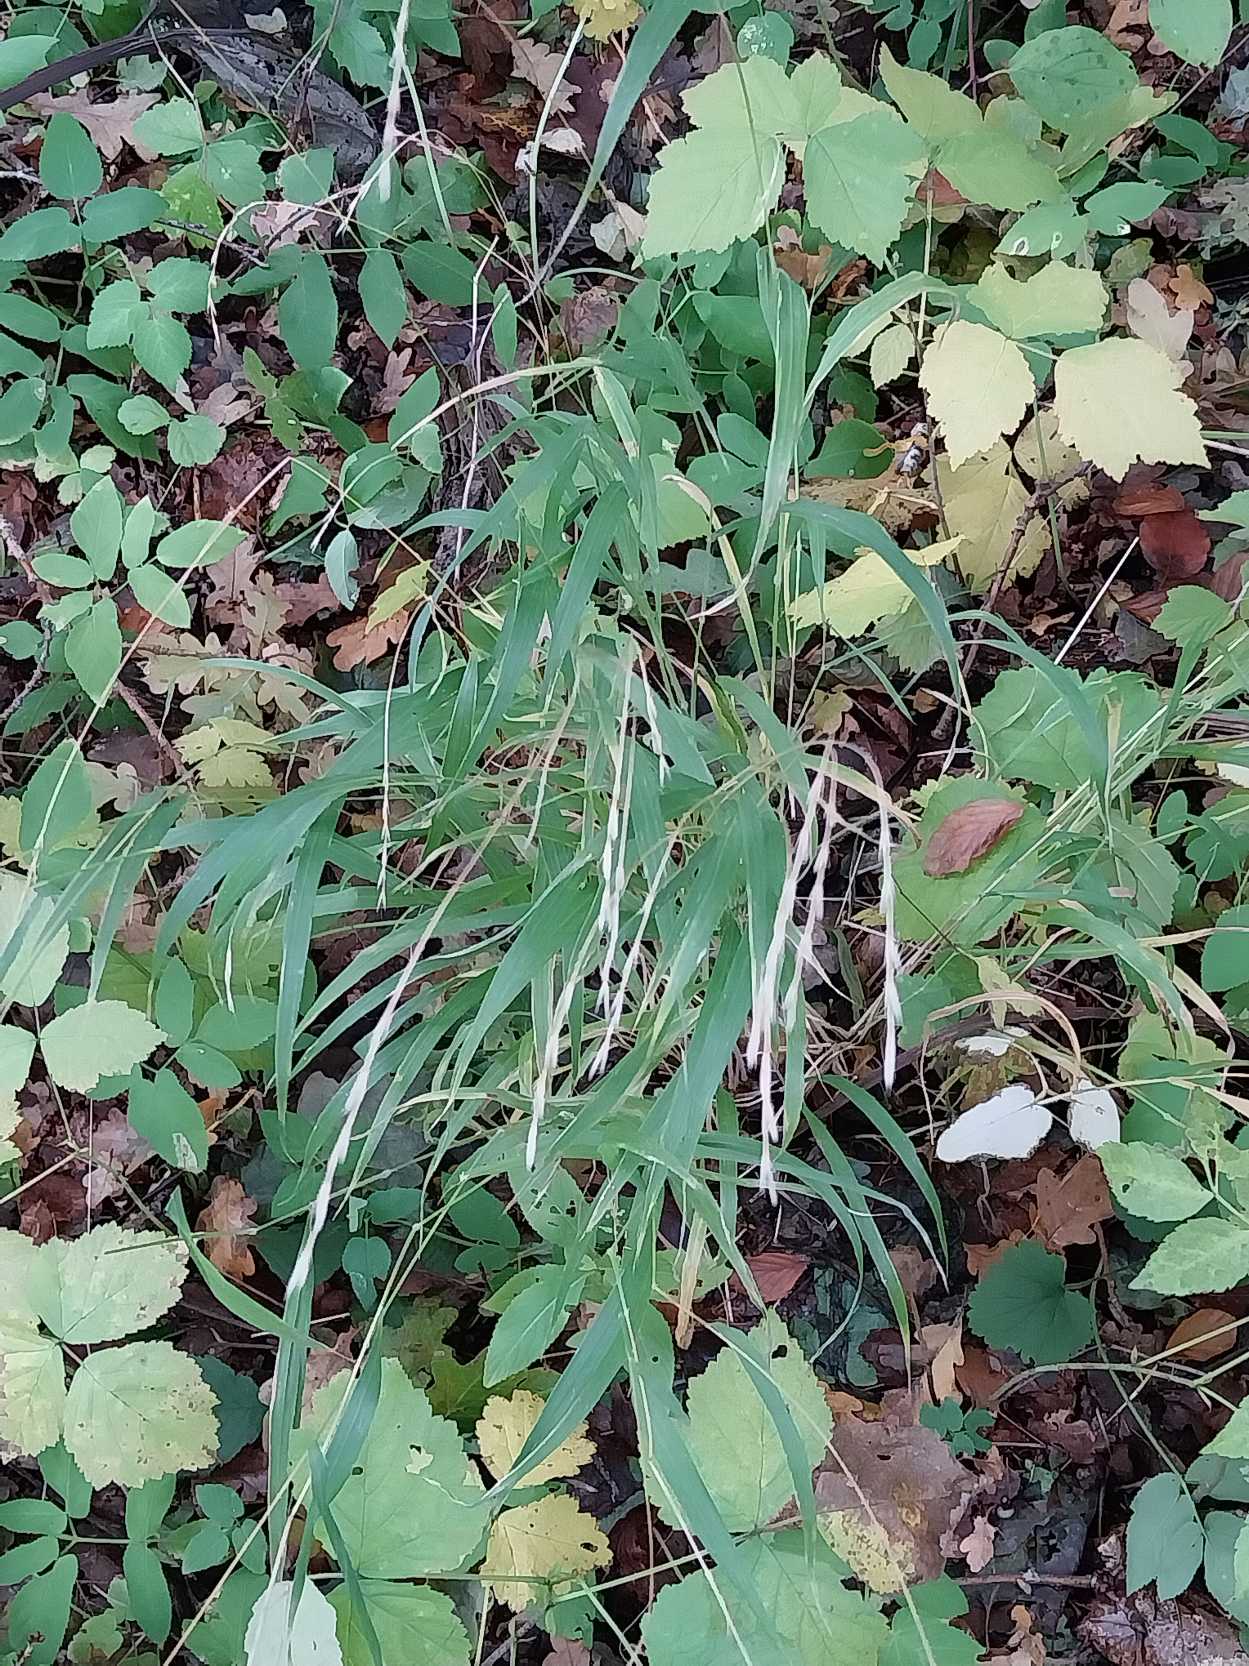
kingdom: Plantae
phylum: Tracheophyta
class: Liliopsida
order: Poales
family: Poaceae
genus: Brachypodium
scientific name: Brachypodium sylvaticum
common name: Skov-stilkaks
